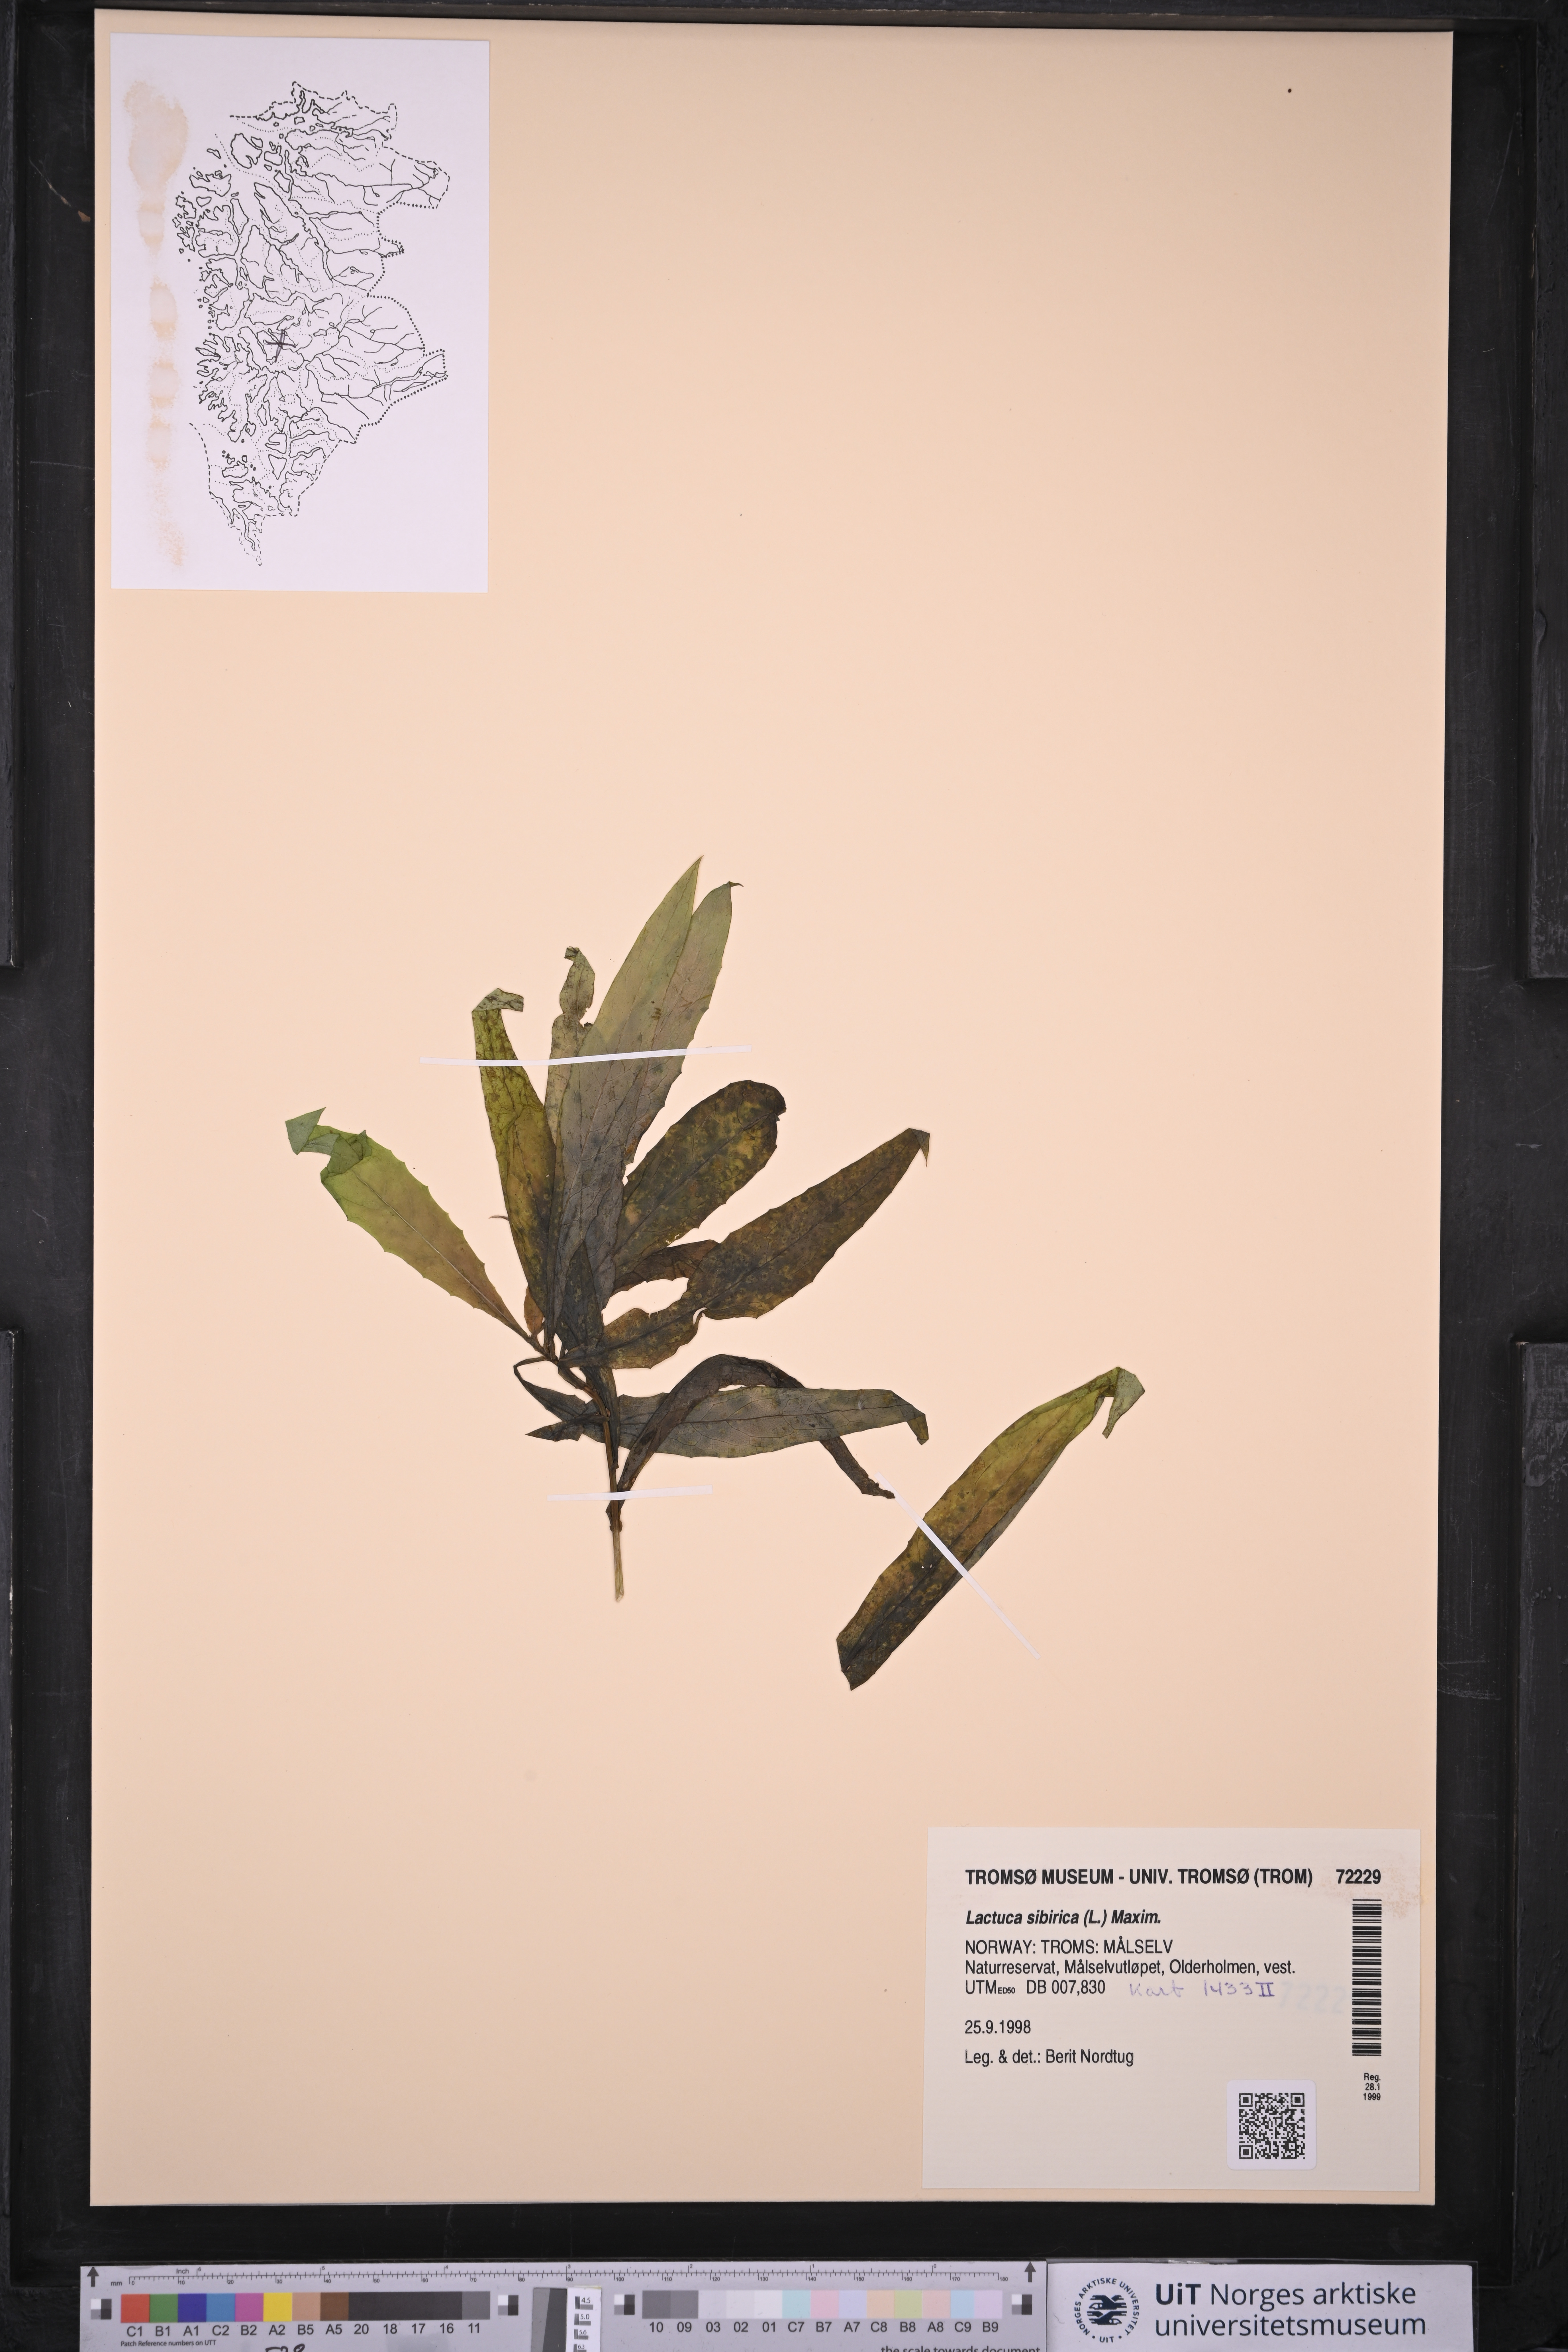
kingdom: Plantae
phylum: Tracheophyta
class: Magnoliopsida
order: Asterales
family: Asteraceae
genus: Lactuca
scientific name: Lactuca sibirica
